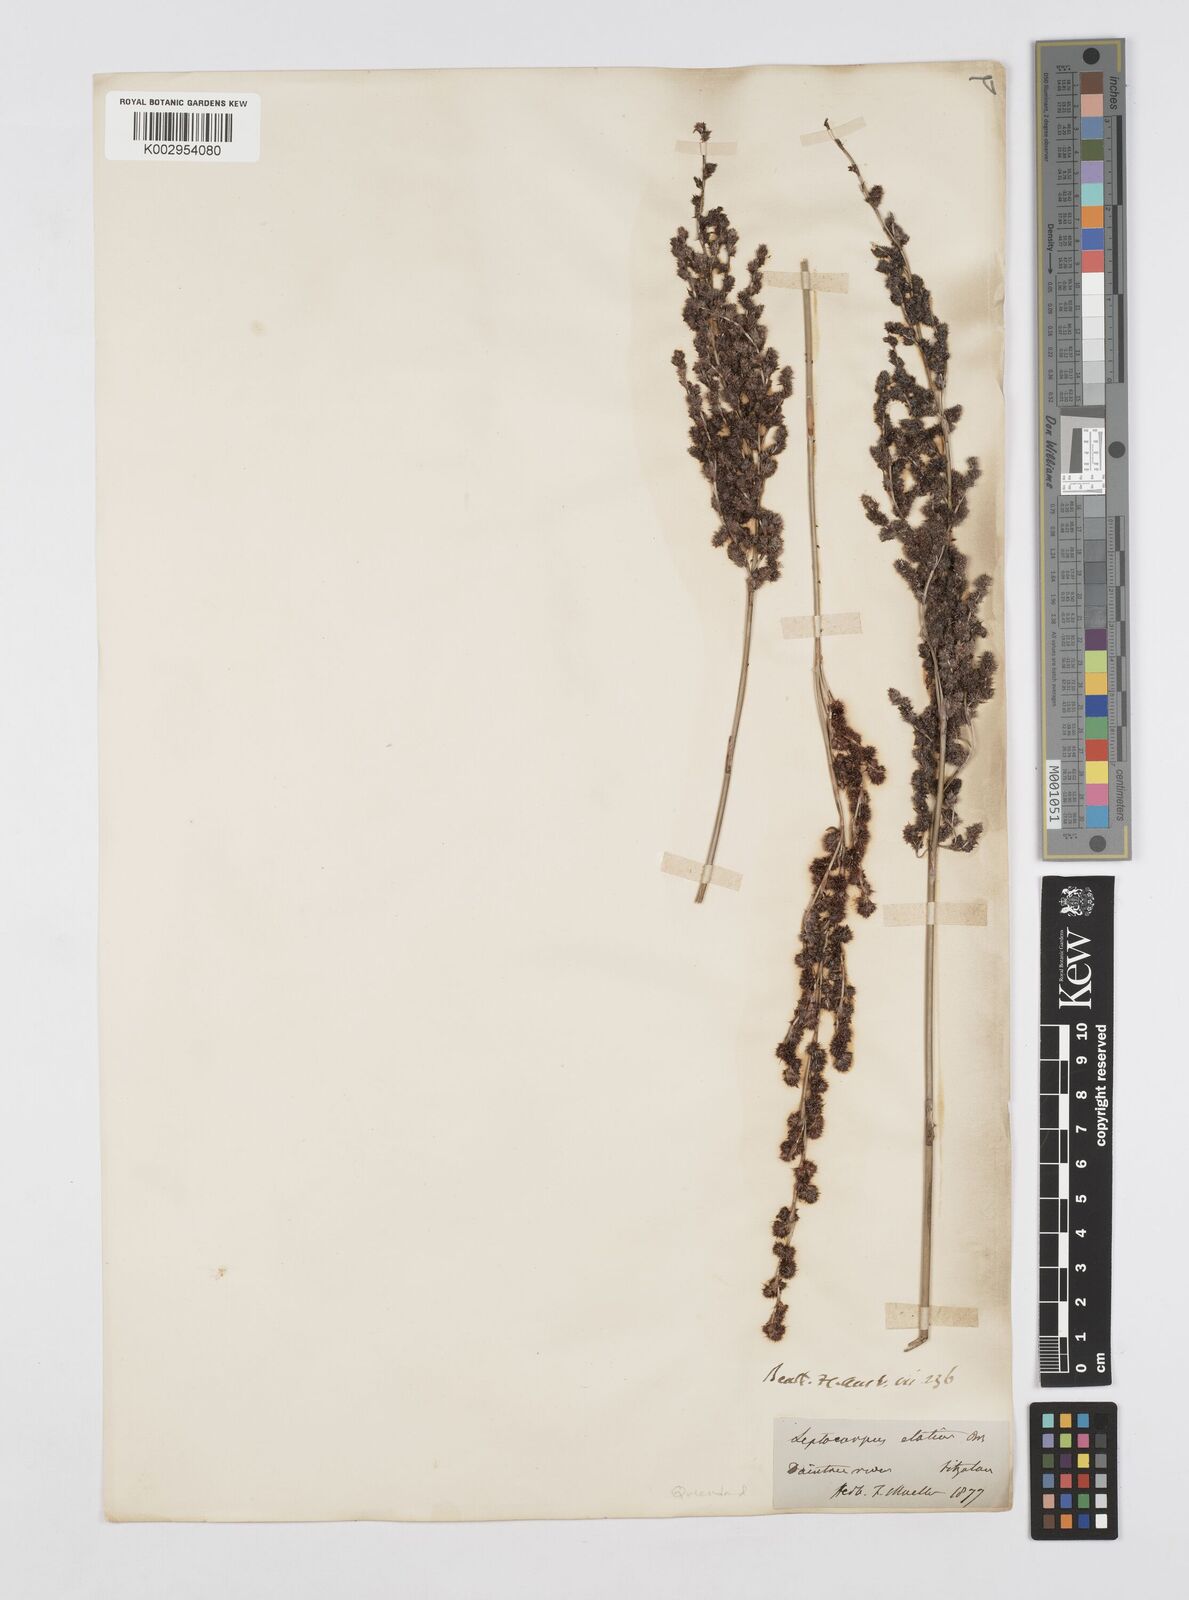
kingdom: Plantae
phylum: Tracheophyta
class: Liliopsida
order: Poales
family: Restionaceae
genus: Dapsilanthus
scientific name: Dapsilanthus elatior
